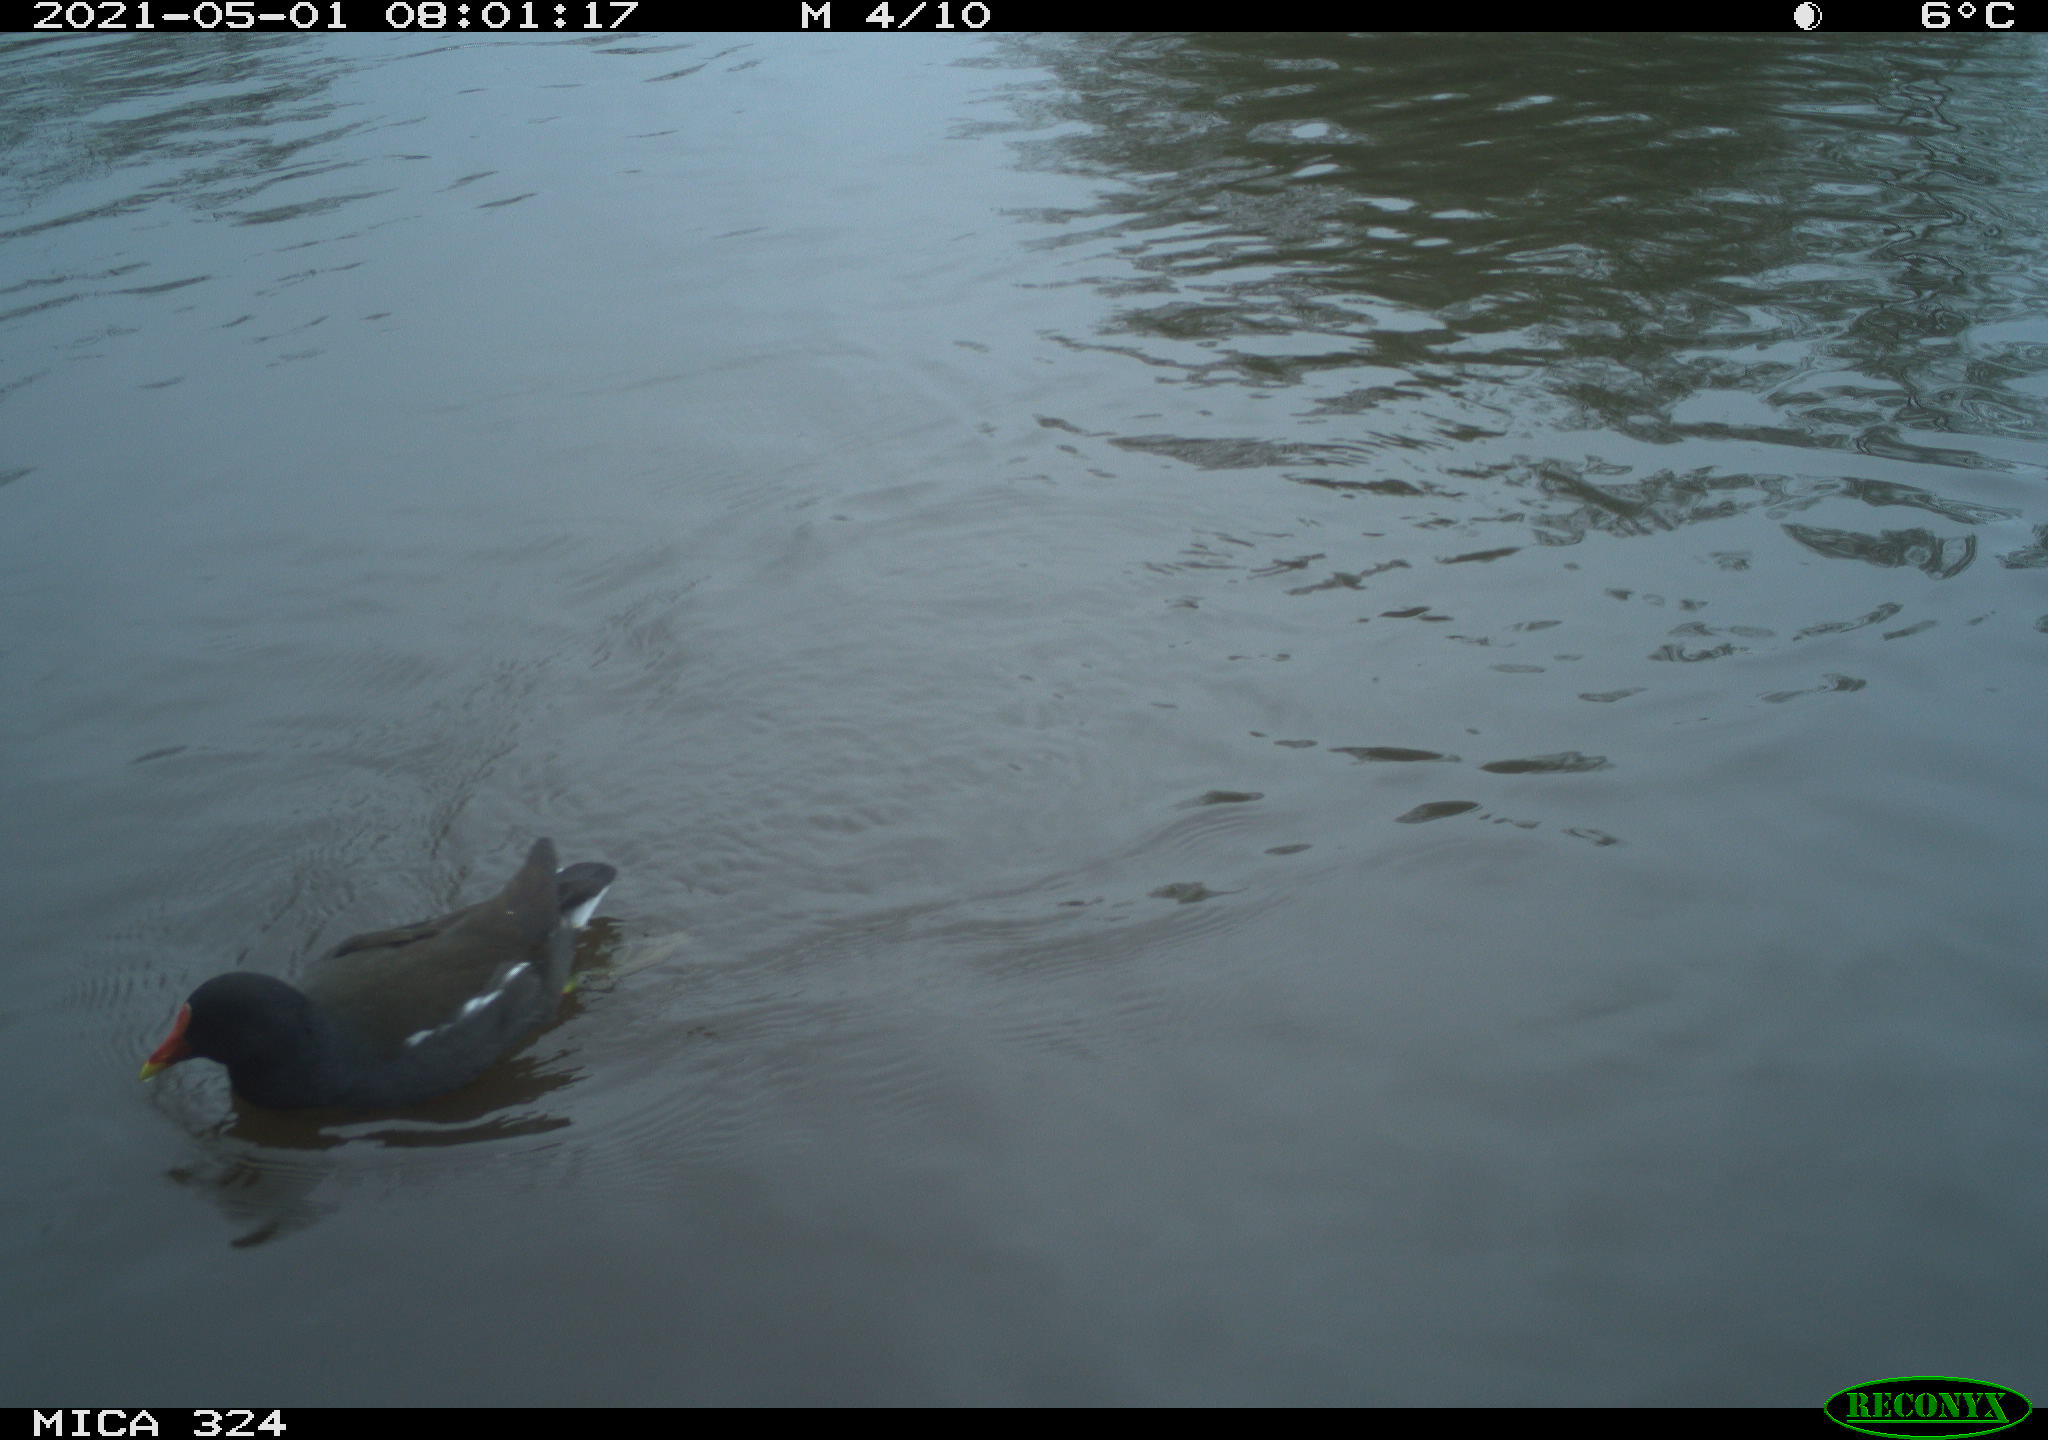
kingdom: Animalia
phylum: Chordata
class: Aves
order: Gruiformes
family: Rallidae
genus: Gallinula
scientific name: Gallinula chloropus
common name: Common moorhen
